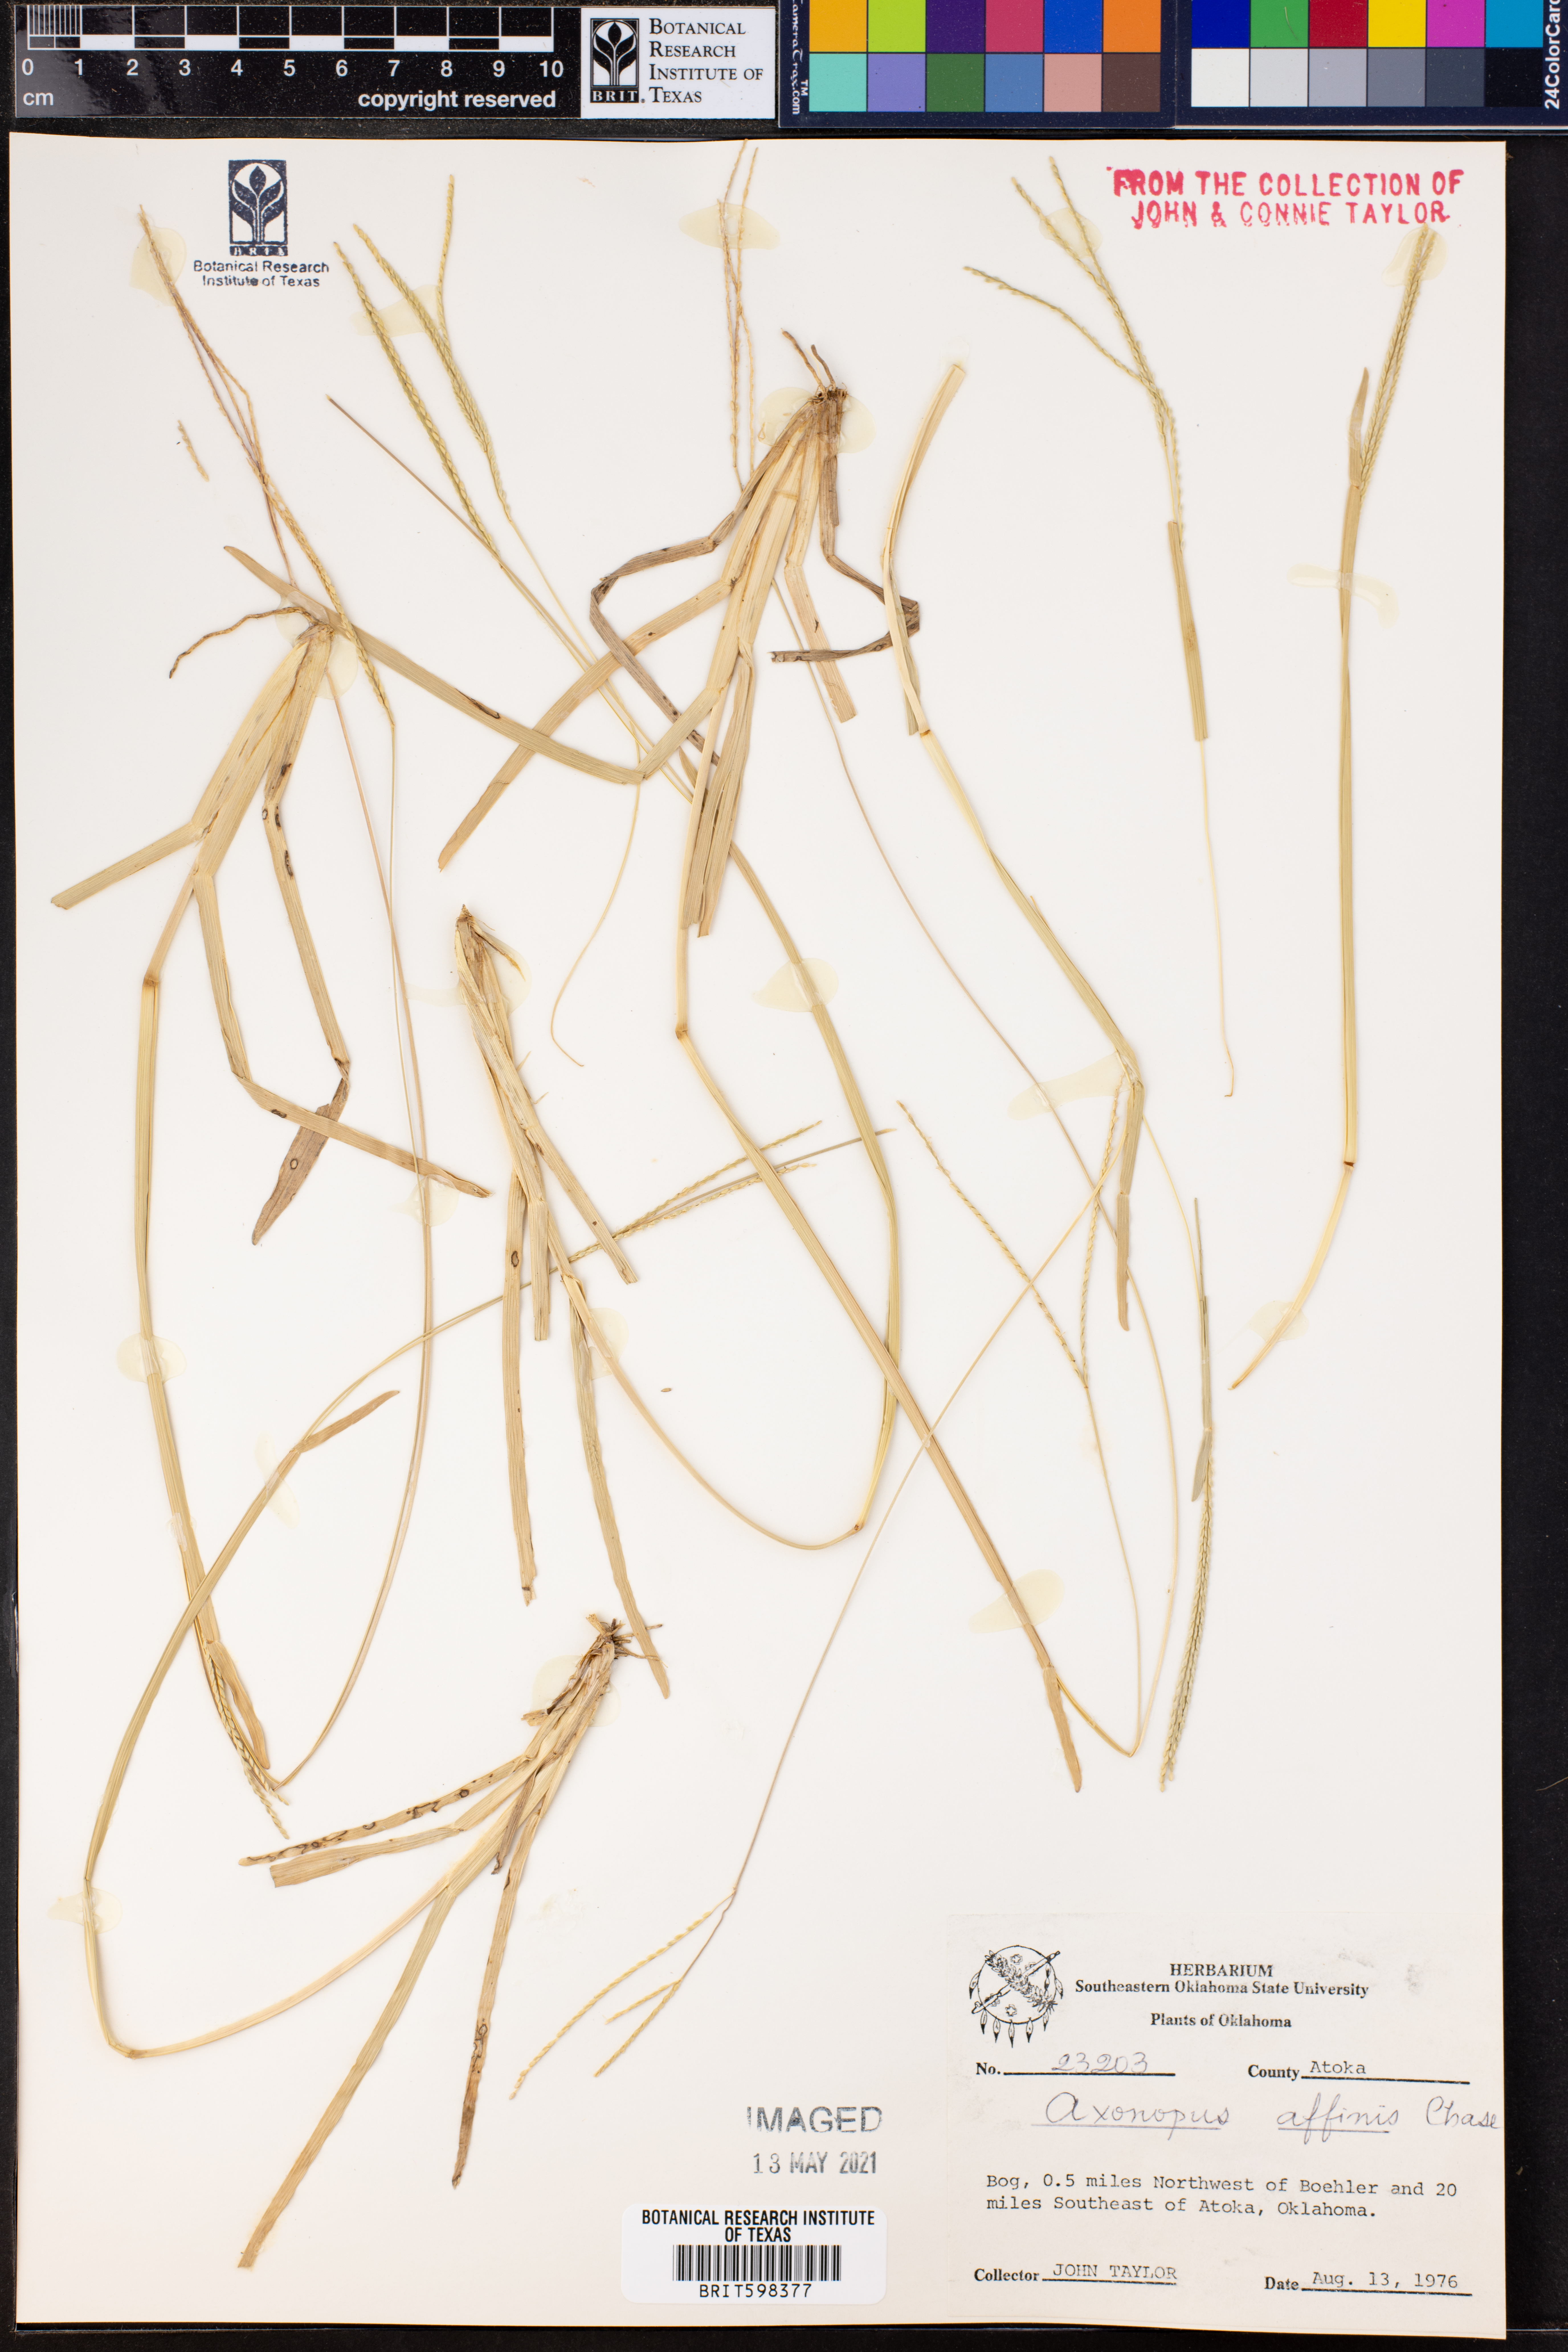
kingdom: Plantae
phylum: Tracheophyta
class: Liliopsida
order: Poales
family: Poaceae
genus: Axonopus
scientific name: Axonopus fissifolius
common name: Common carpetgrass
